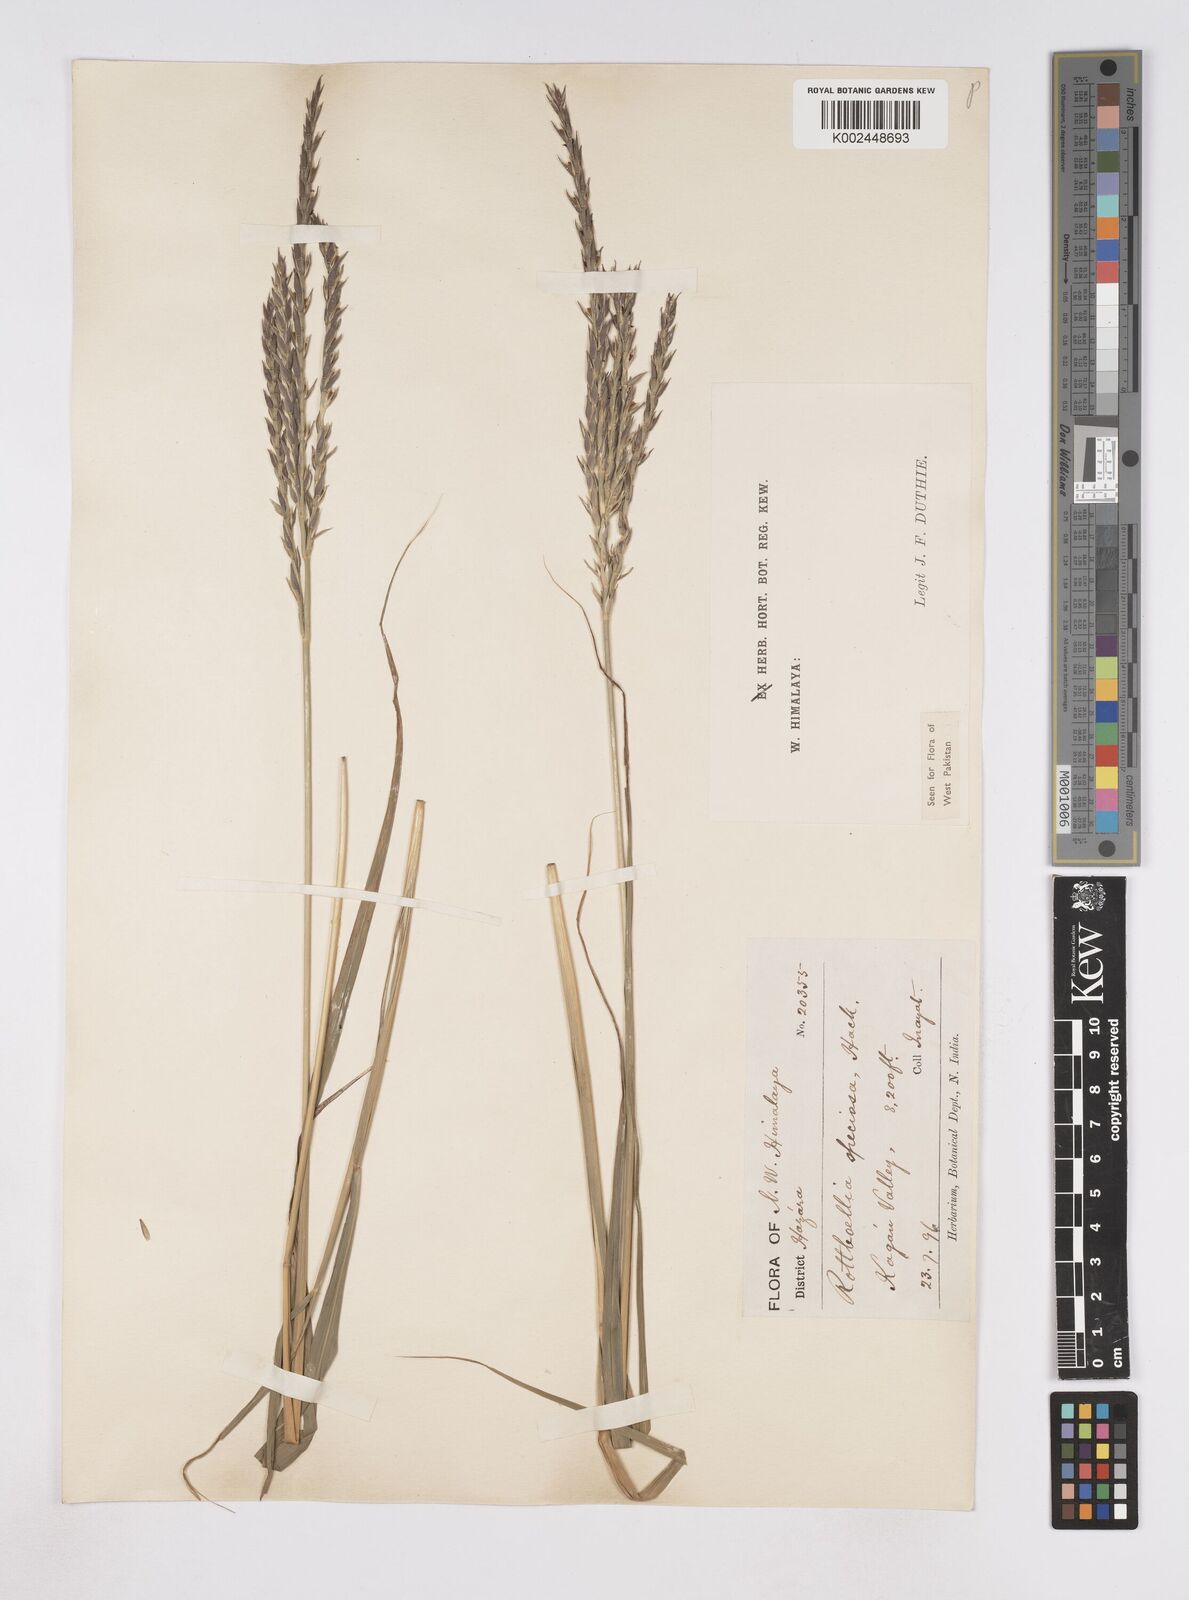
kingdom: Plantae
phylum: Tracheophyta
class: Liliopsida
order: Poales
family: Poaceae
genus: Phacelurus
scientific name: Phacelurus speciosus
